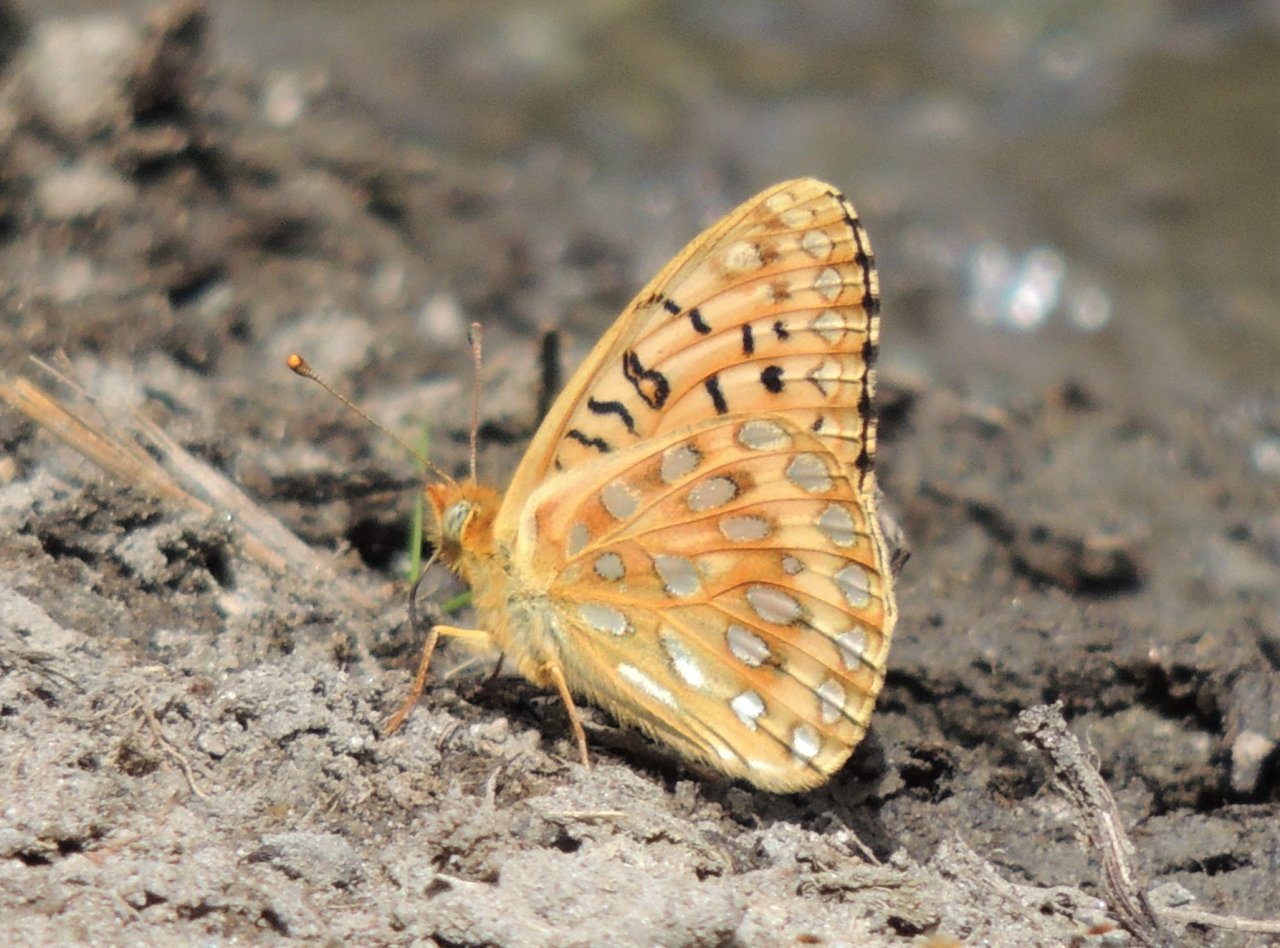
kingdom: Animalia
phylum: Arthropoda
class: Insecta
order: Lepidoptera
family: Nymphalidae
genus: Speyeria
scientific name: Speyeria mormonia
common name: Mormon Fritillary
